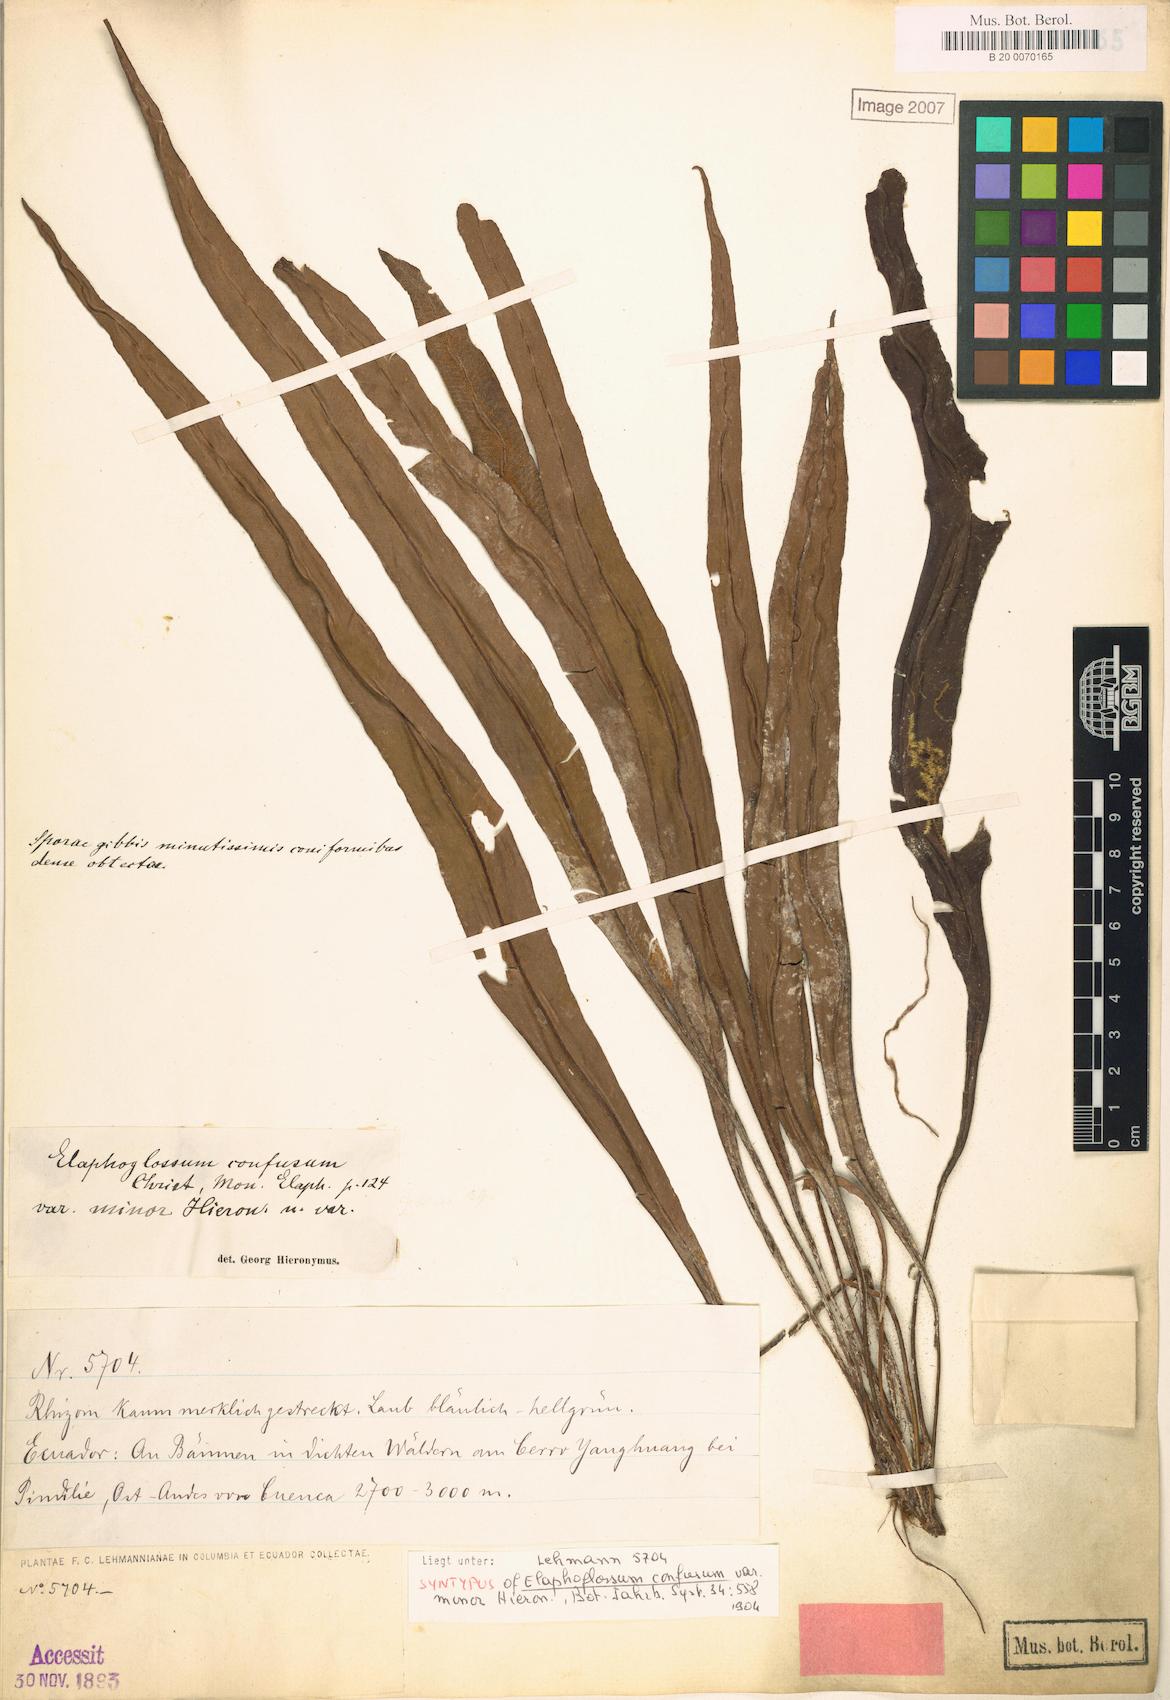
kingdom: Plantae
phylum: Tracheophyta
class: Polypodiopsida
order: Polypodiales
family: Dryopteridaceae
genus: Elaphoglossum
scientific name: Elaphoglossum confusum
